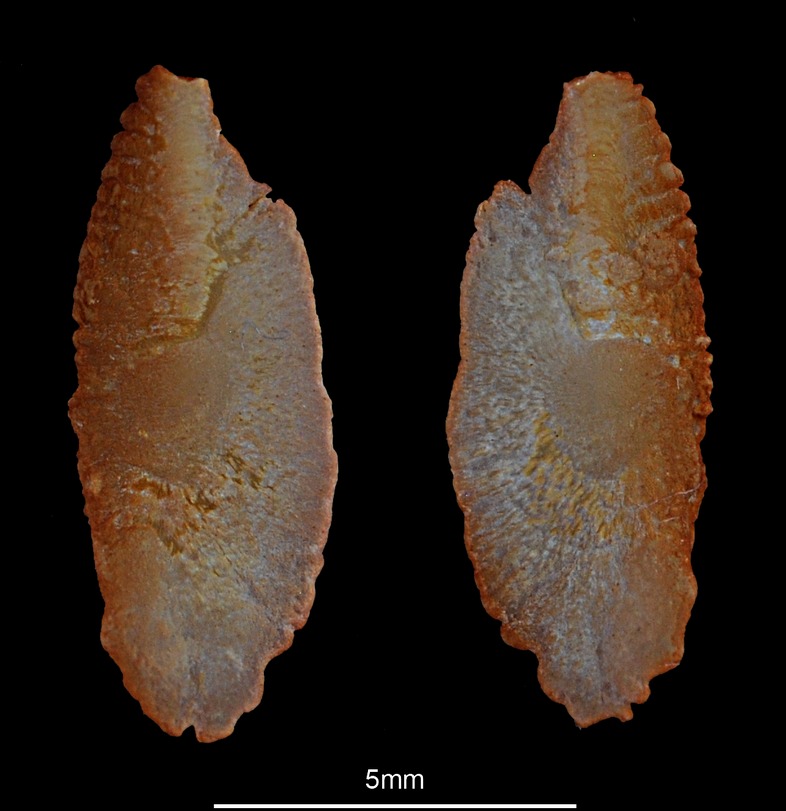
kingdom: Animalia
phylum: Chordata
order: Scorpaeniformes
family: Scorpaenidae
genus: Scorpaena
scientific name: Scorpaena porcus
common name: Black scorpionfish
